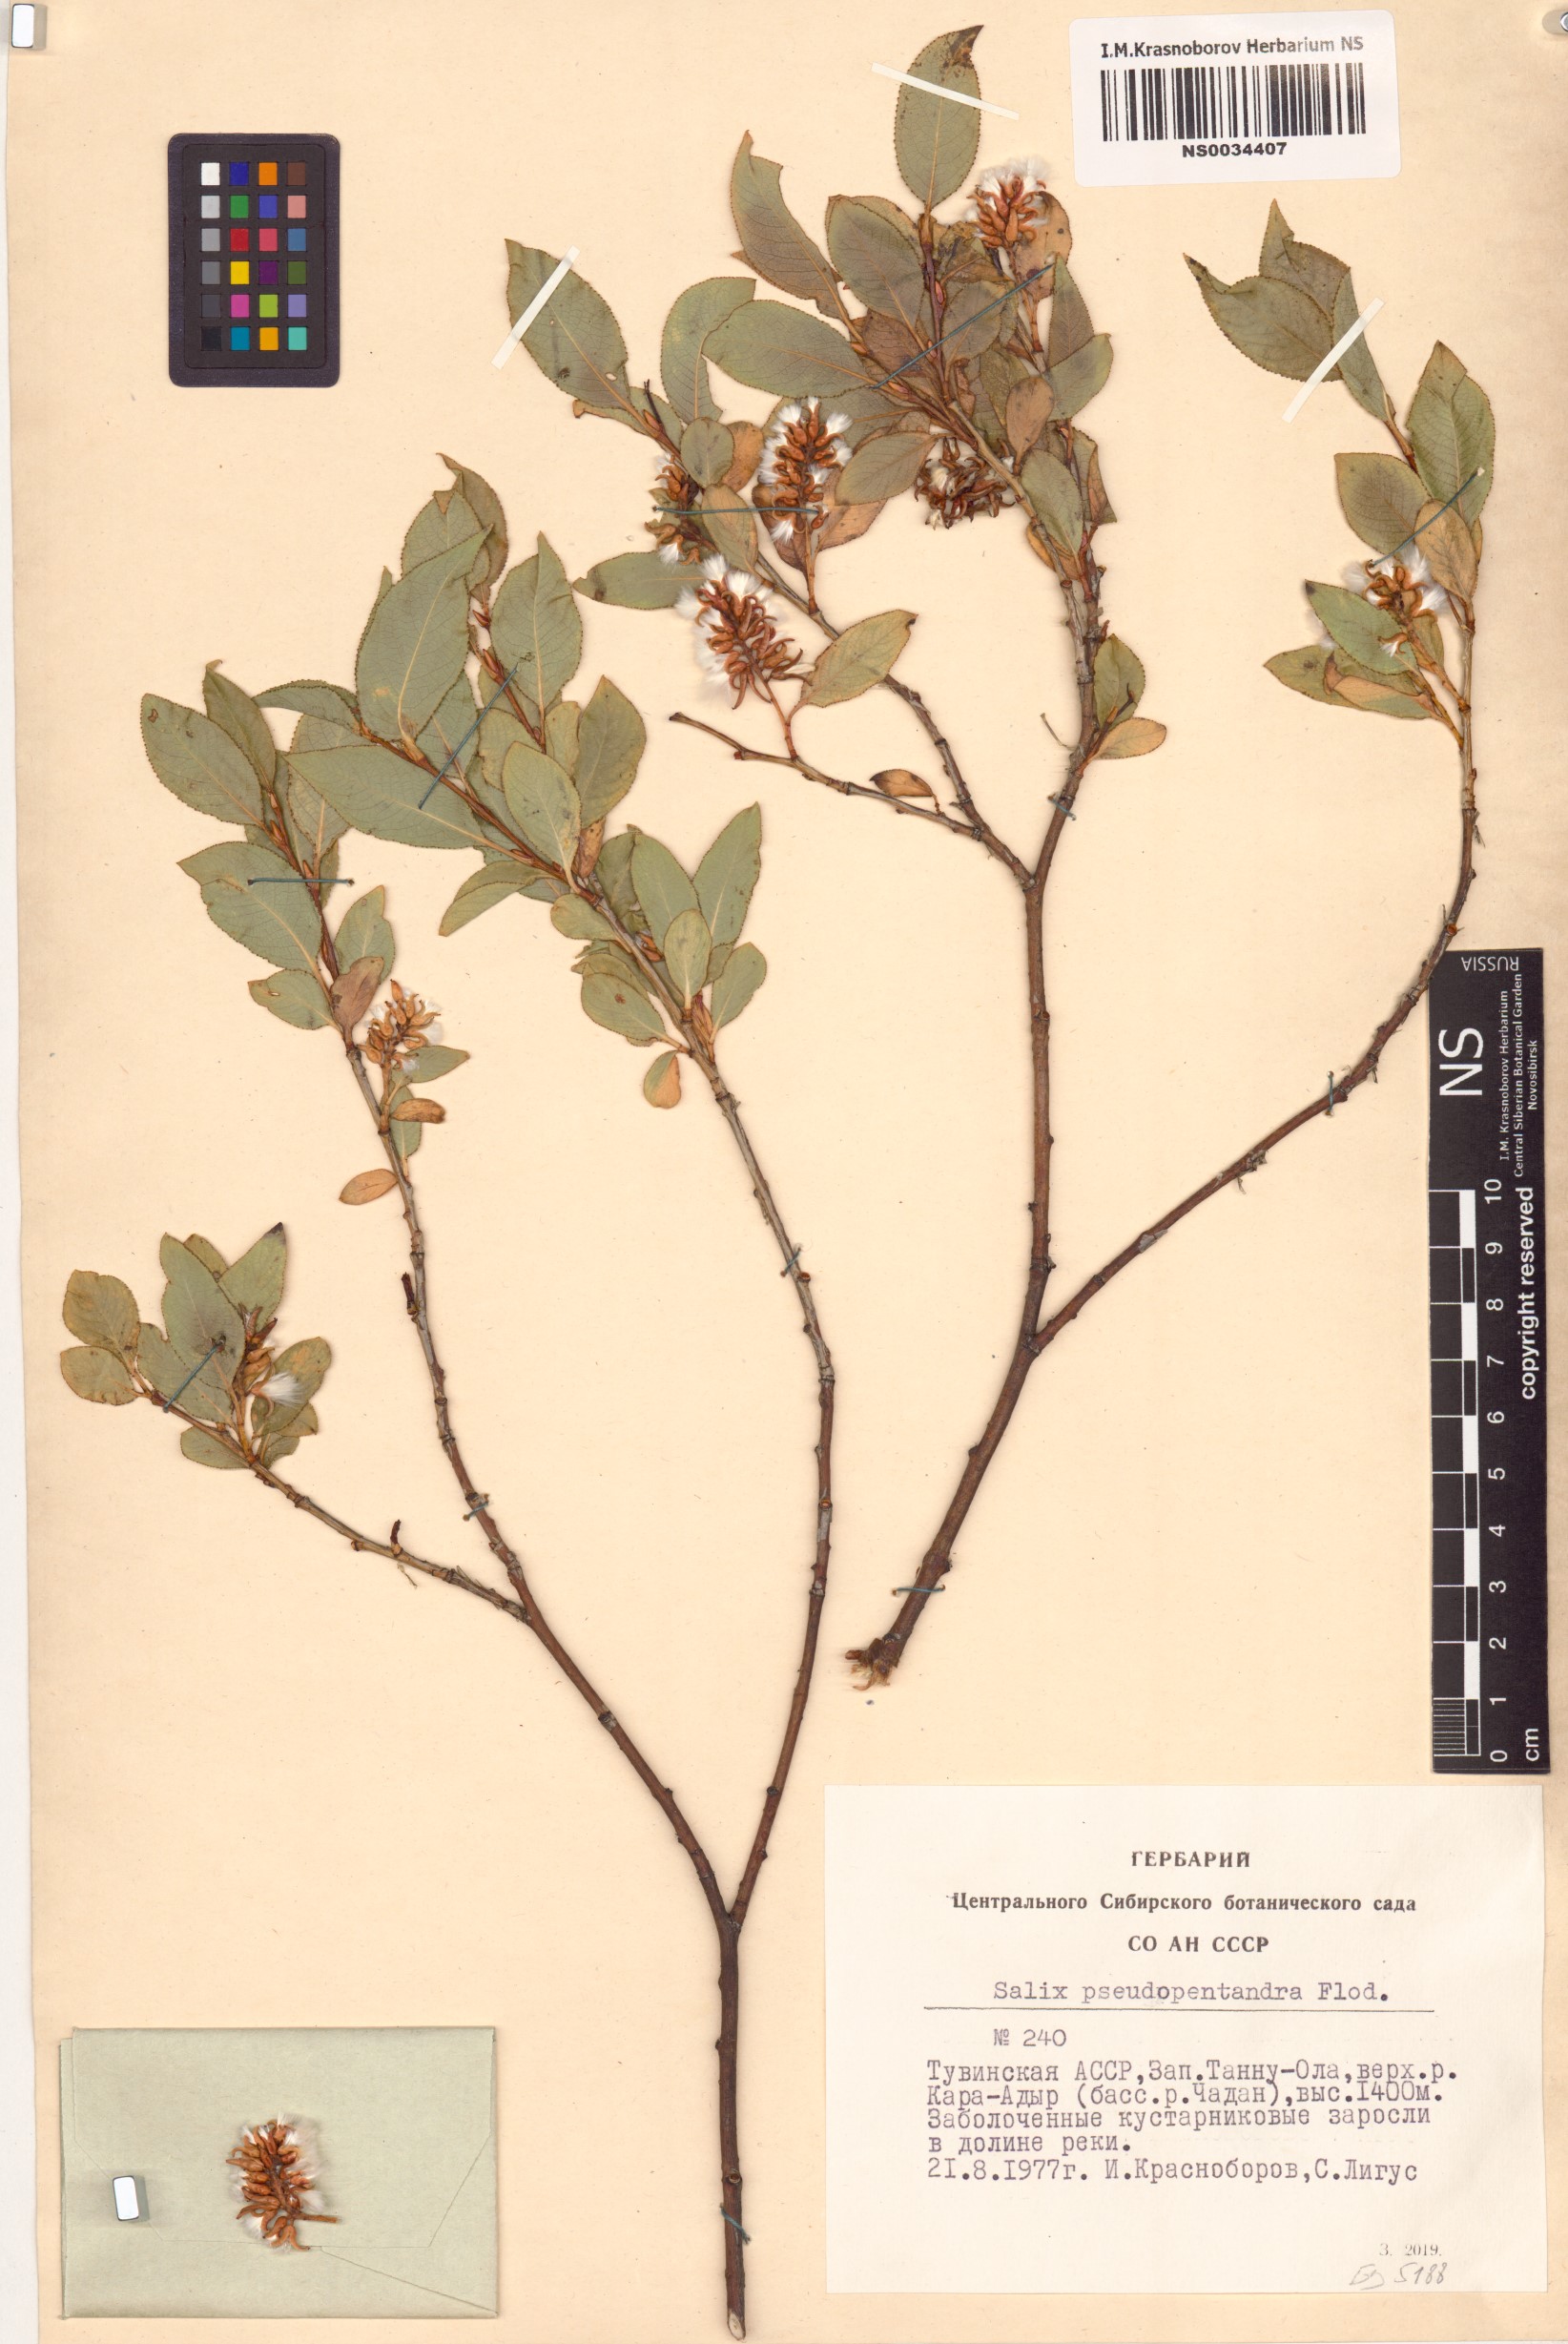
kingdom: Plantae
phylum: Tracheophyta
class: Magnoliopsida
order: Malpighiales
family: Salicaceae
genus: Salix
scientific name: Salix pseudopentandra
